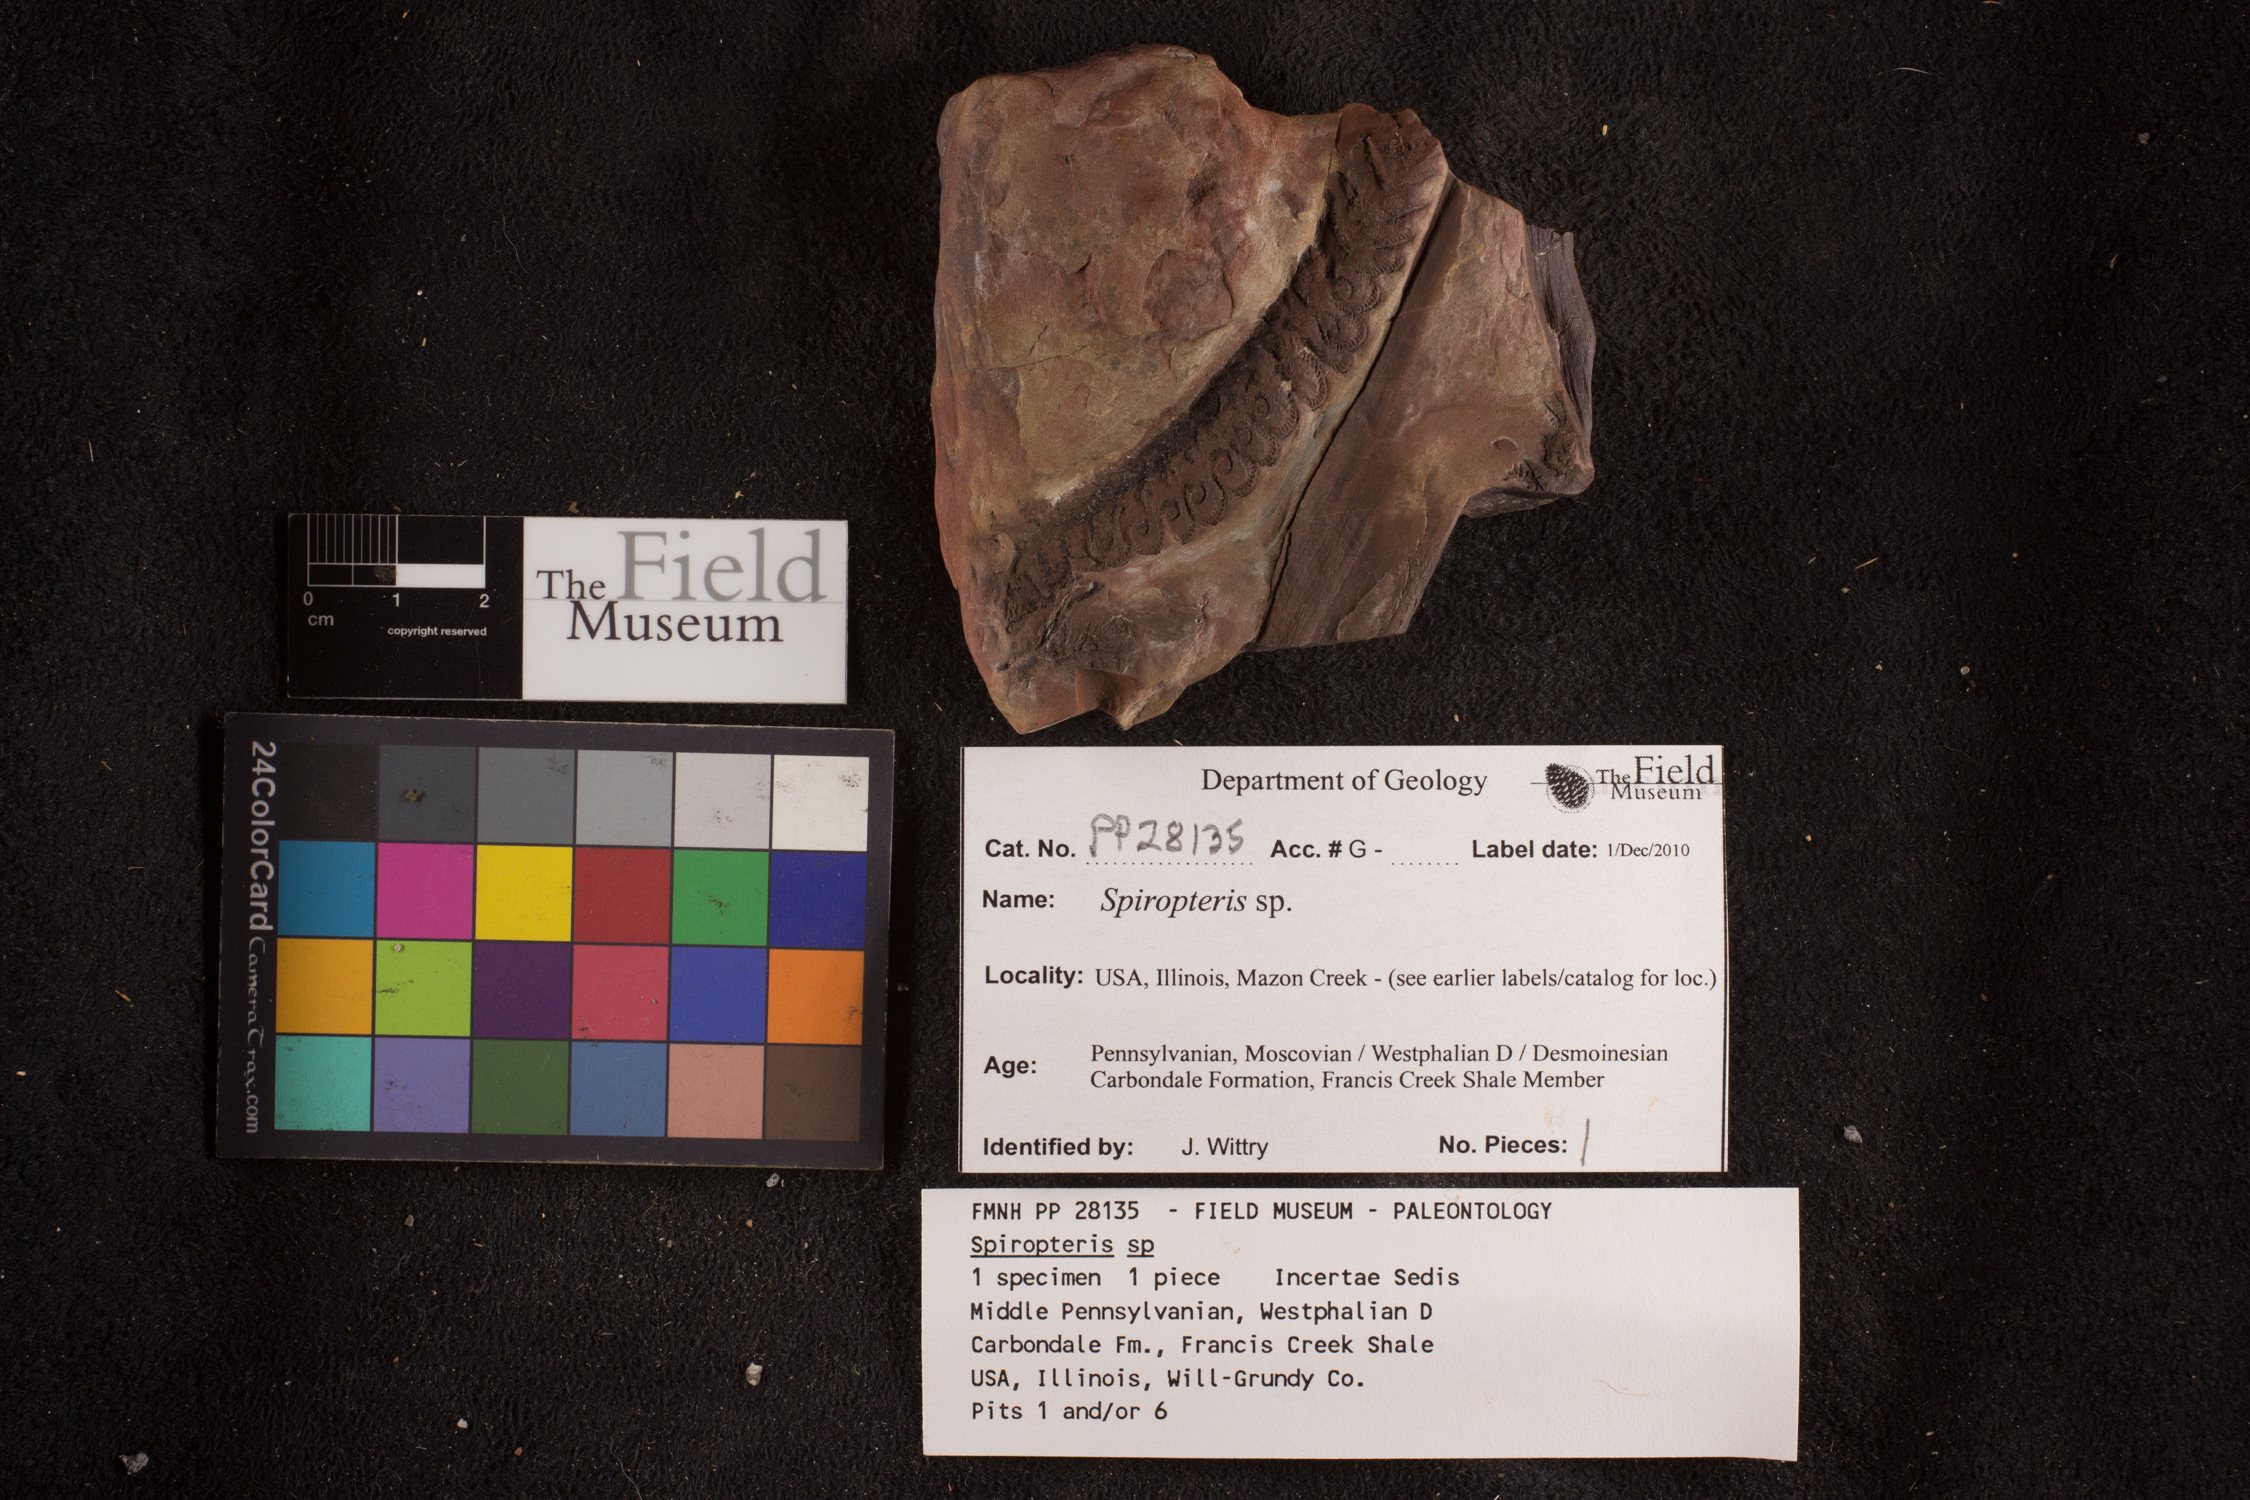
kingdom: Plantae
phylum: Tracheophyta
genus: Spiropteris
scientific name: Spiropteris
